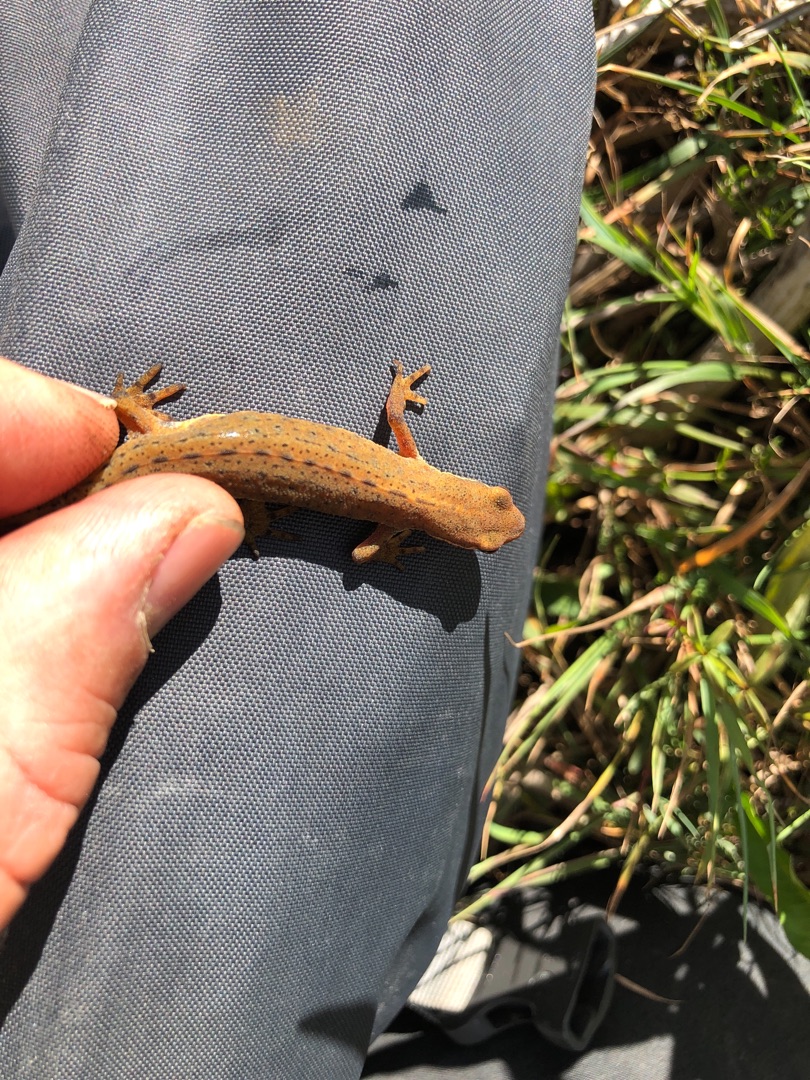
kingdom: Animalia
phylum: Chordata
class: Amphibia
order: Caudata
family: Salamandridae
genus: Lissotriton
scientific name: Lissotriton vulgaris
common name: Lille vandsalamander
